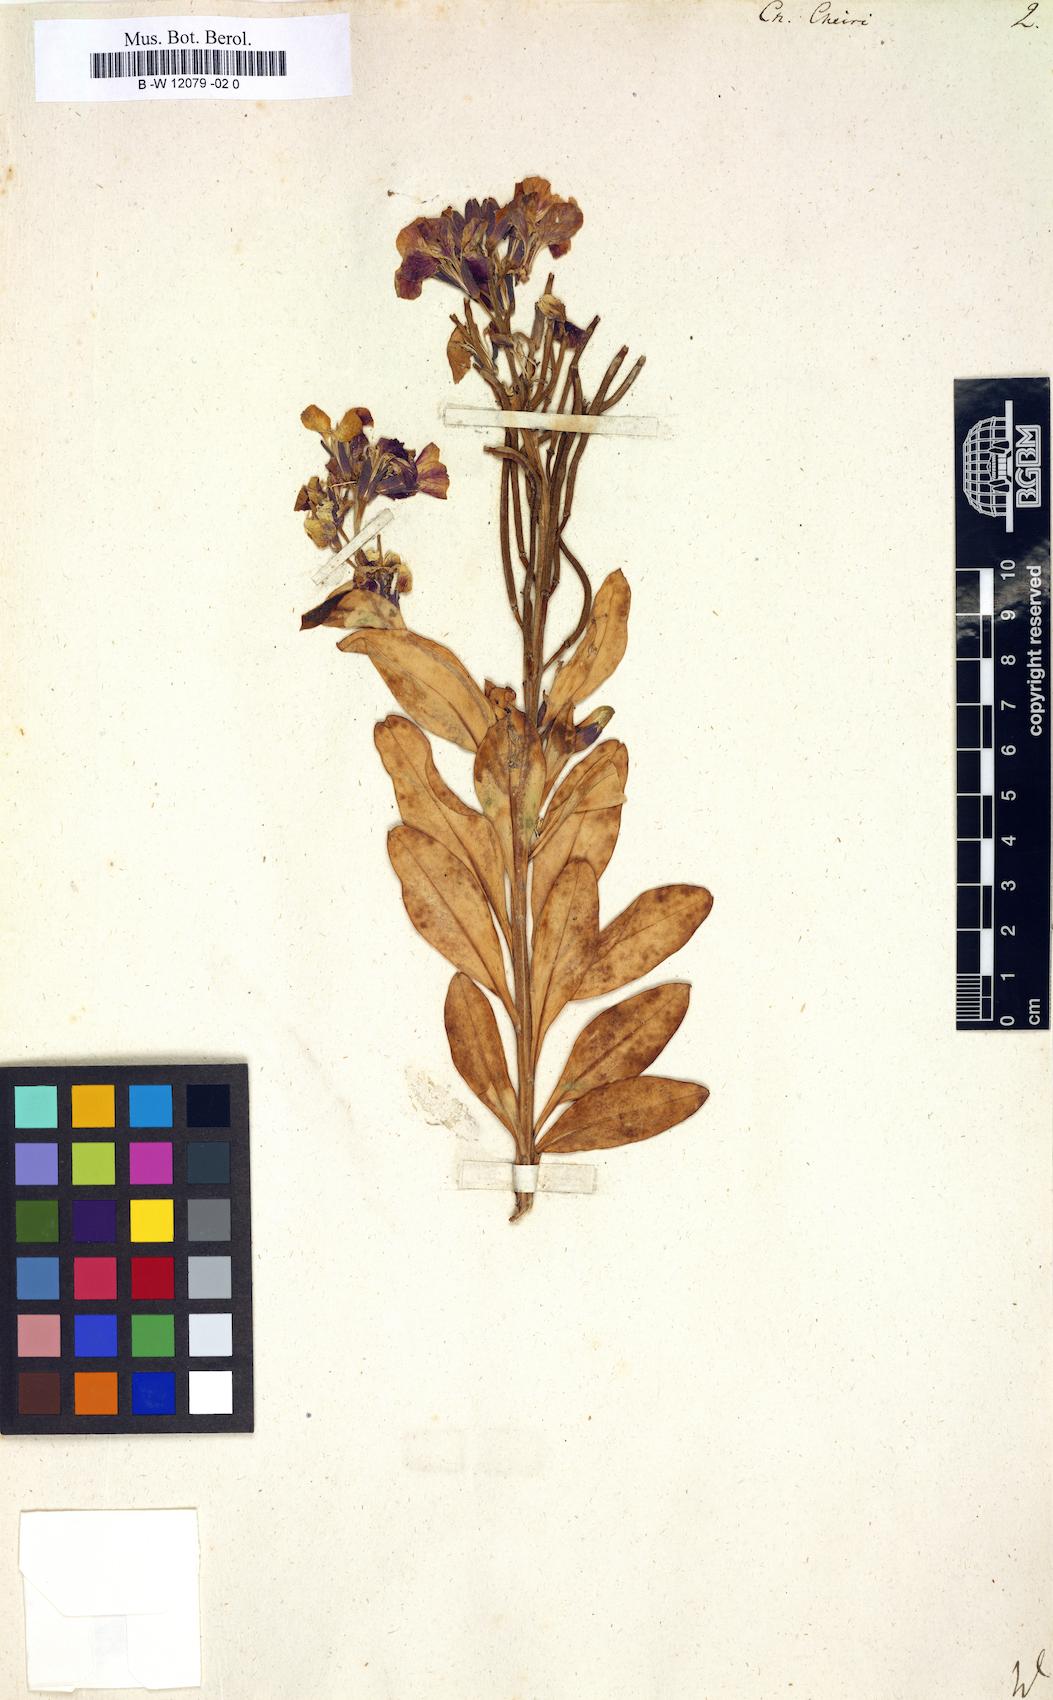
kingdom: Plantae
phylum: Tracheophyta
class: Magnoliopsida
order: Brassicales
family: Brassicaceae
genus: Erysimum
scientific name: Erysimum cheiri
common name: Wallflower
